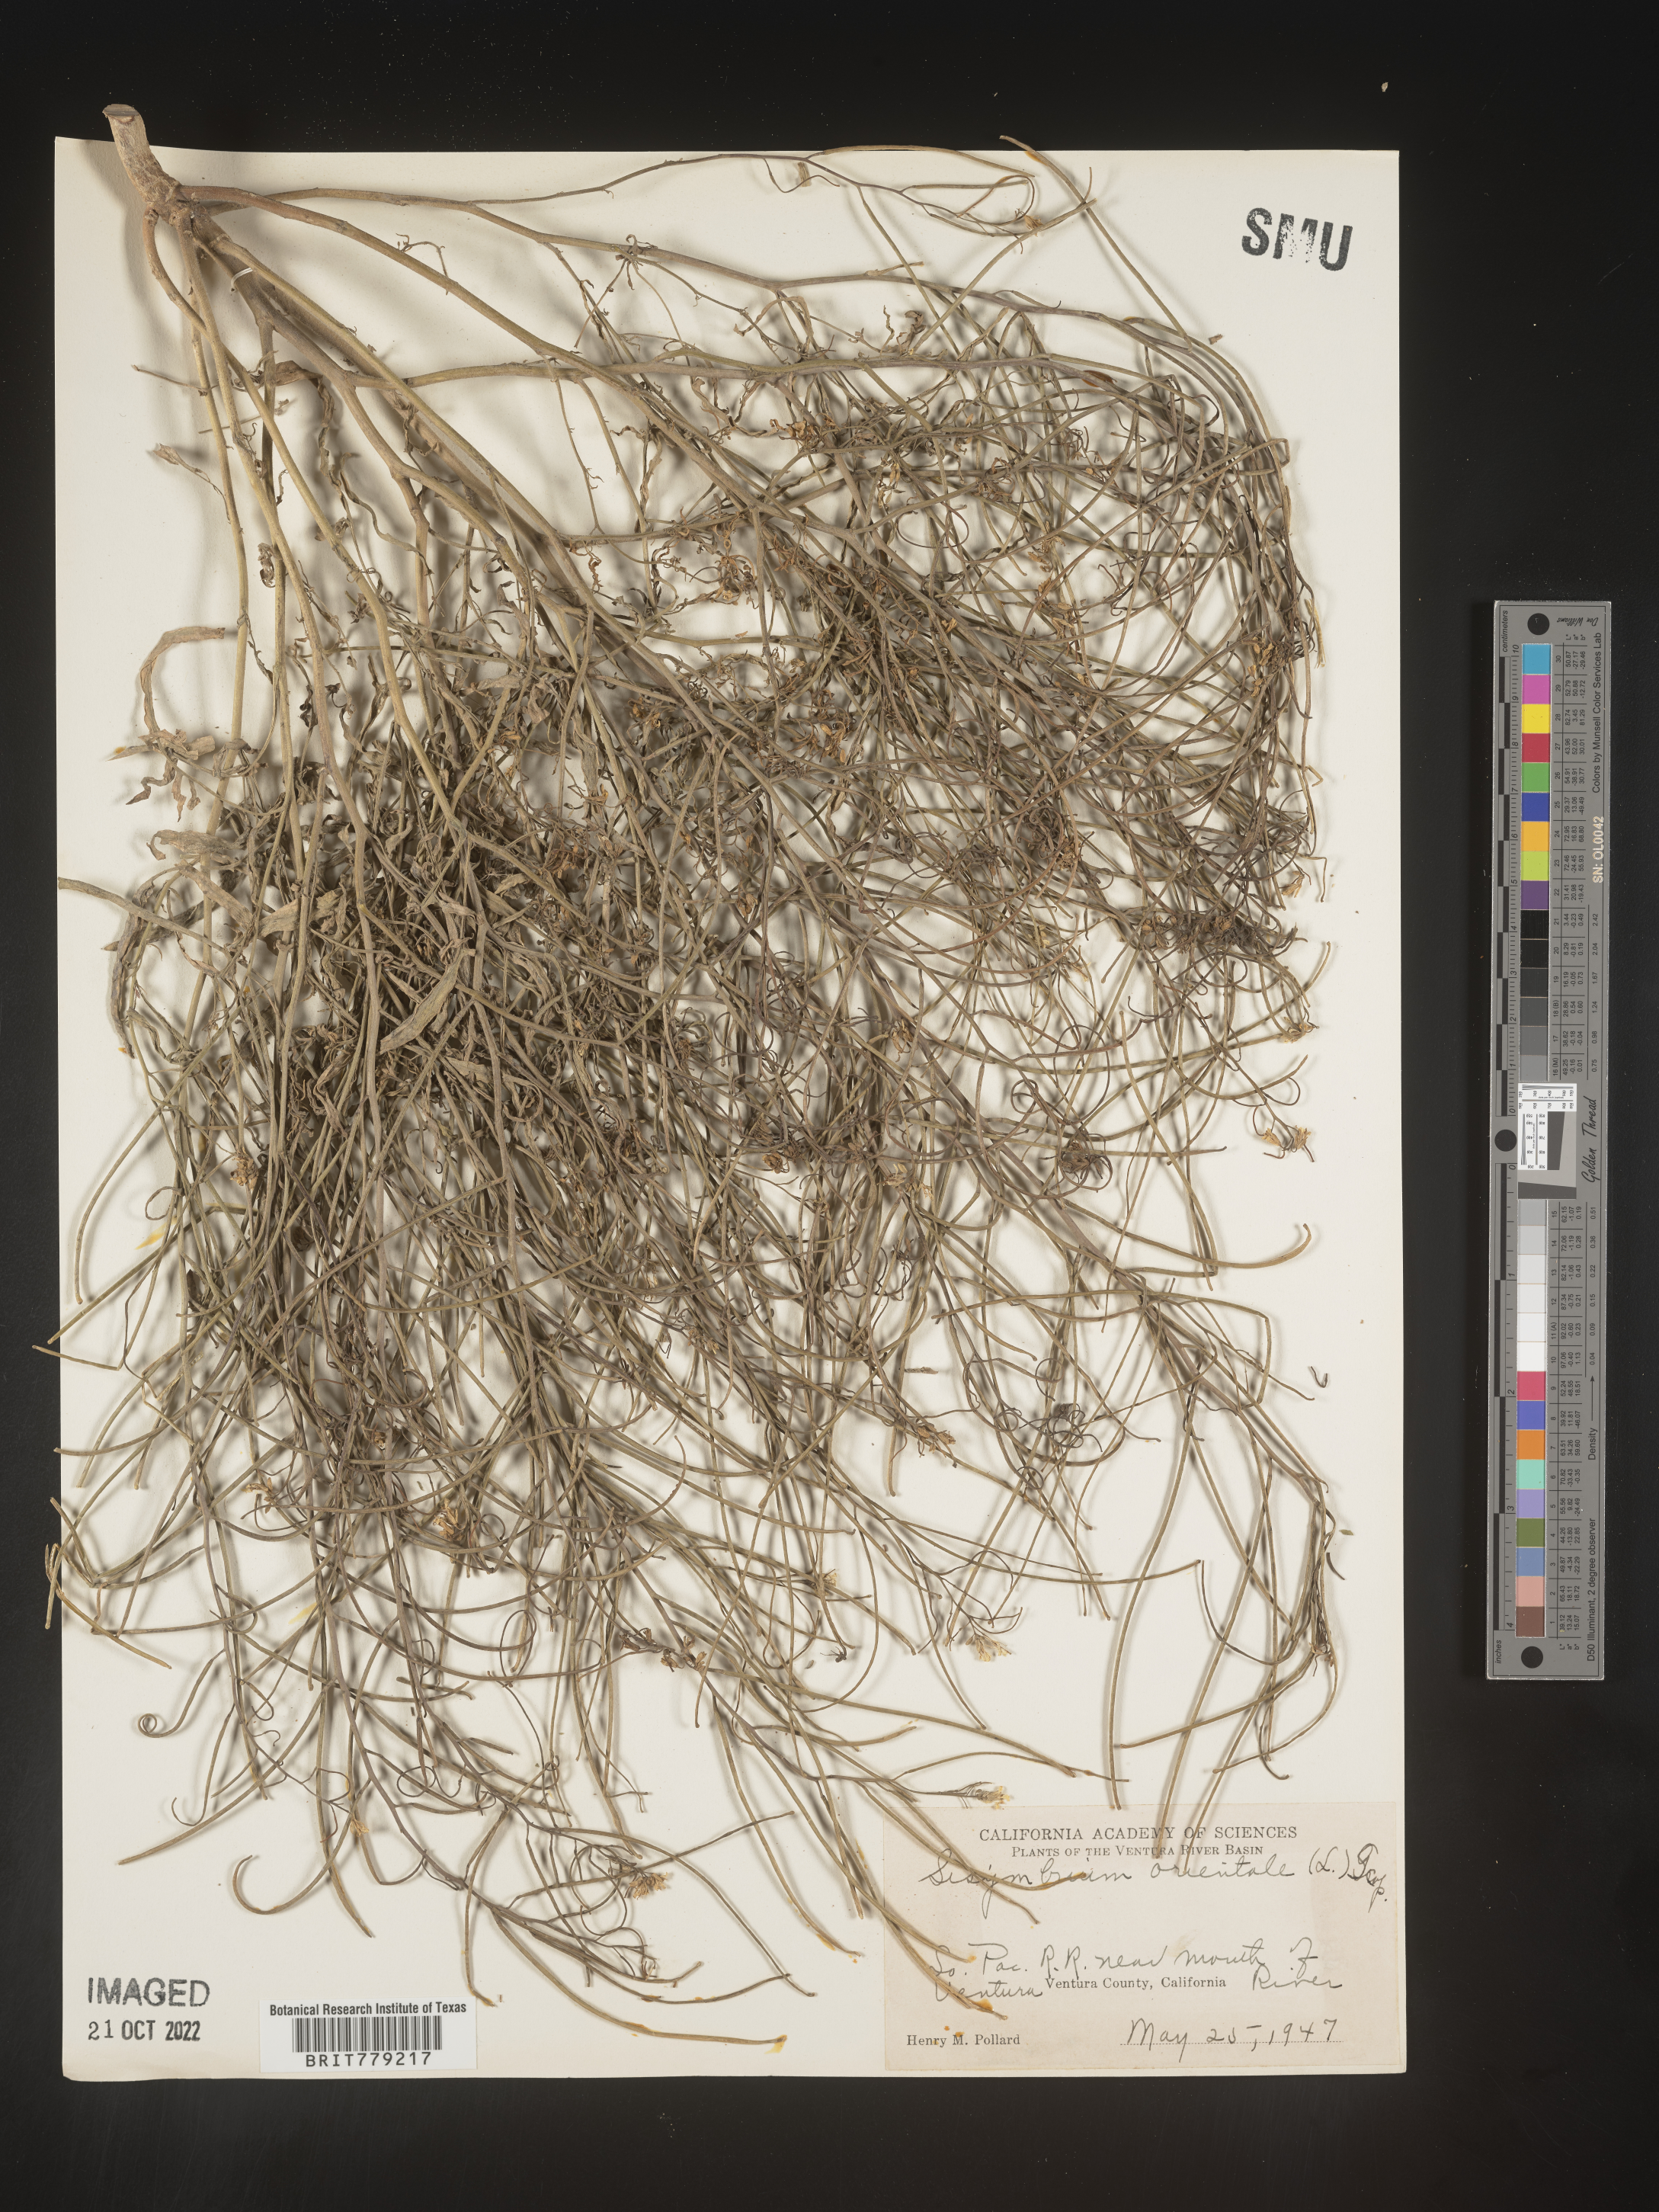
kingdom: Plantae
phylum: Tracheophyta
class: Magnoliopsida
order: Brassicales
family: Brassicaceae
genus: Sisymbrium
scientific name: Sisymbrium orientale
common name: Eastern rocket
